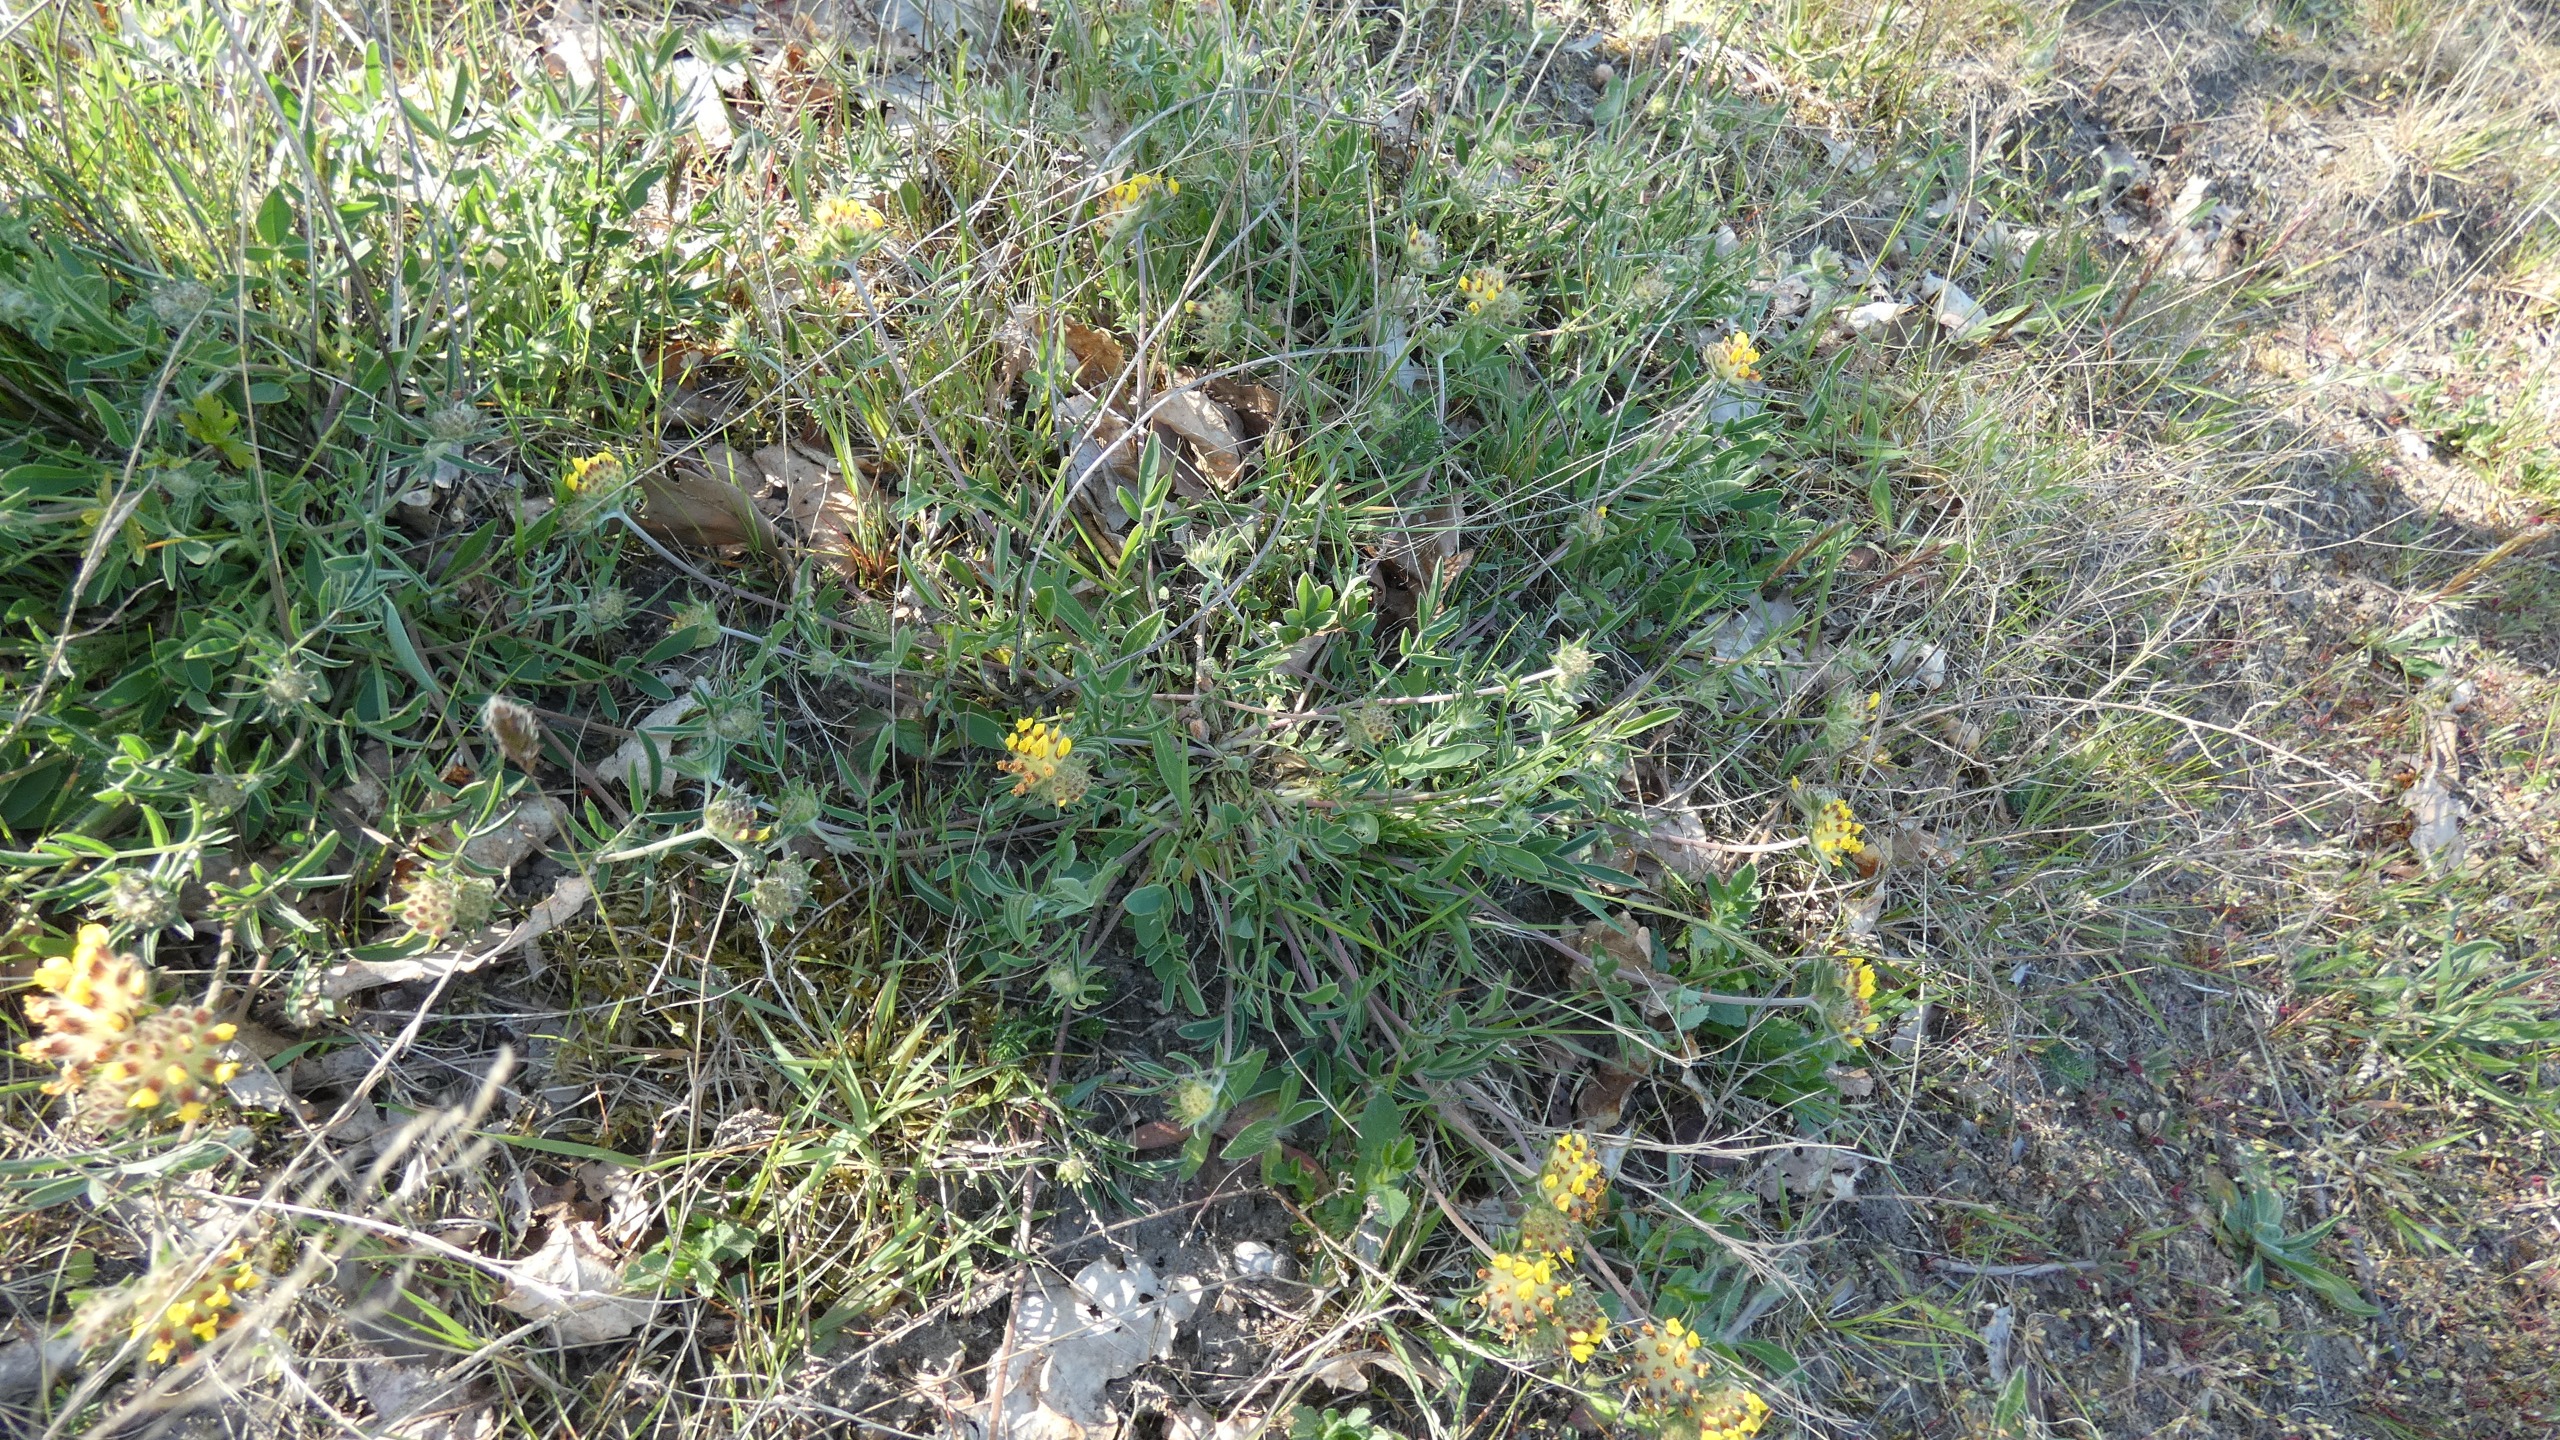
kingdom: Plantae
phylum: Tracheophyta
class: Magnoliopsida
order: Fabales
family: Fabaceae
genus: Anthyllis
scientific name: Anthyllis vulneraria
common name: Rundbælg
